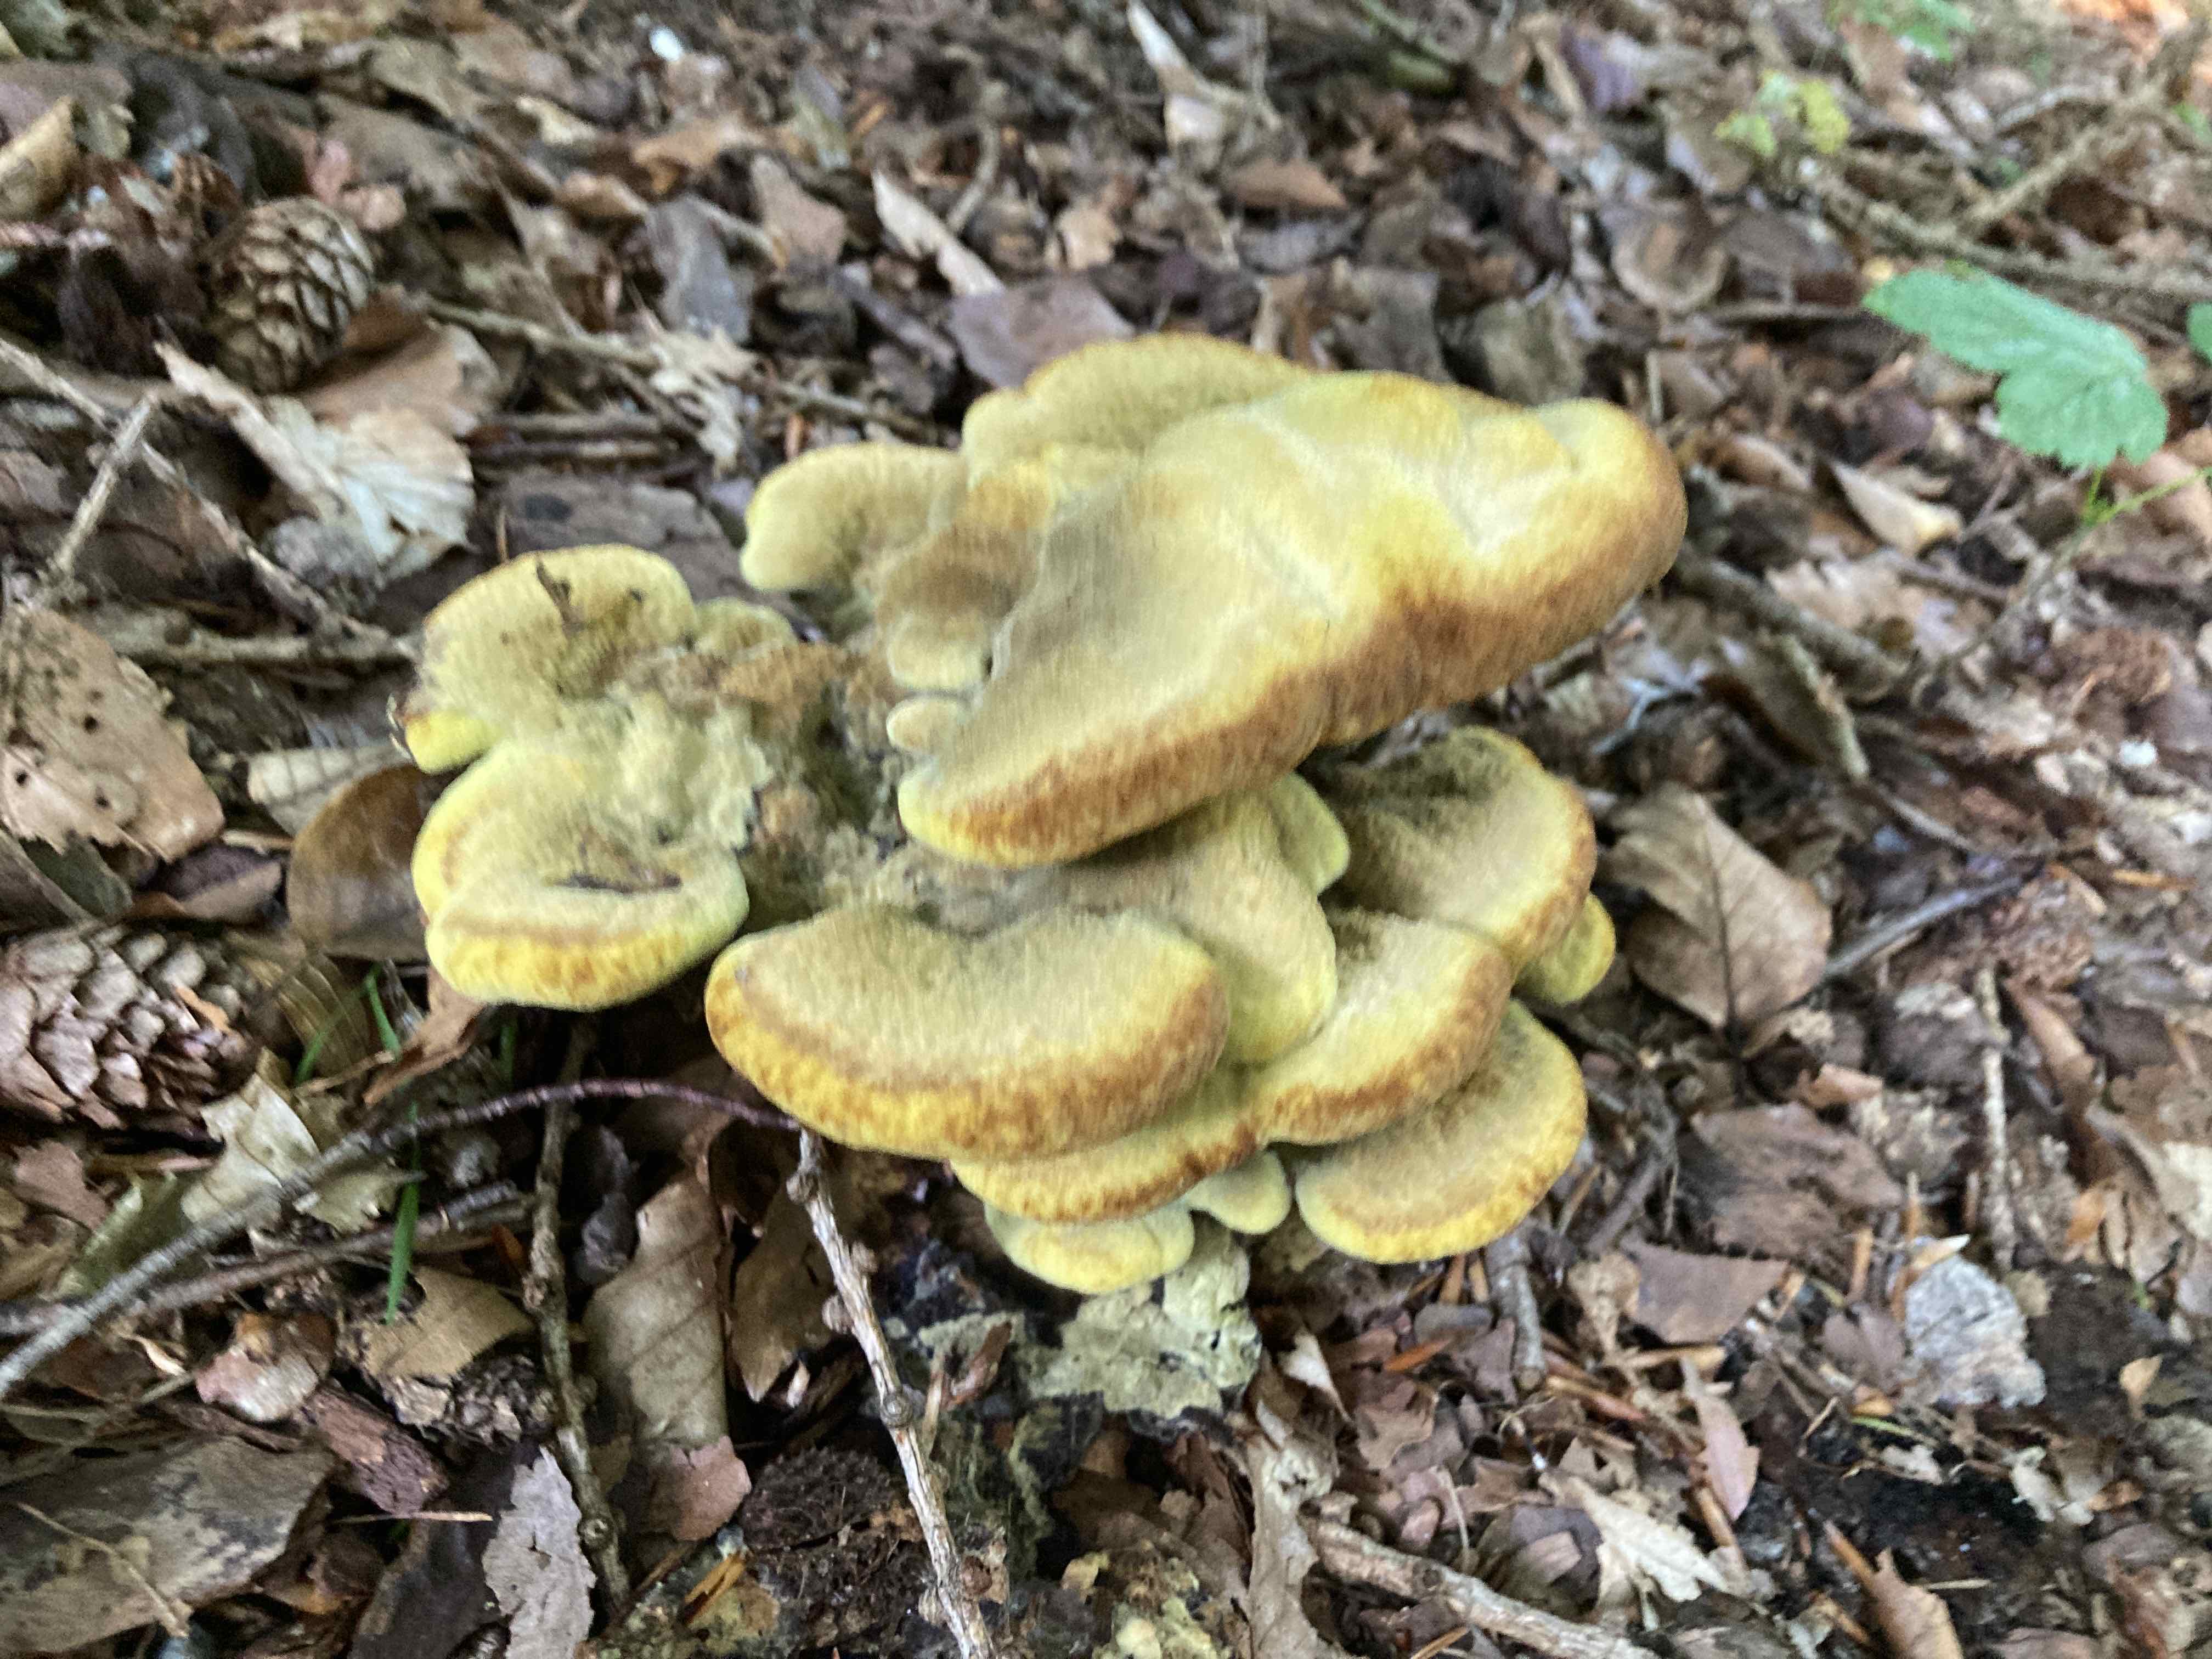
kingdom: Fungi
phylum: Basidiomycota
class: Agaricomycetes
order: Polyporales
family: Laetiporaceae
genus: Phaeolus
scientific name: Phaeolus schweinitzii
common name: brunporesvamp
